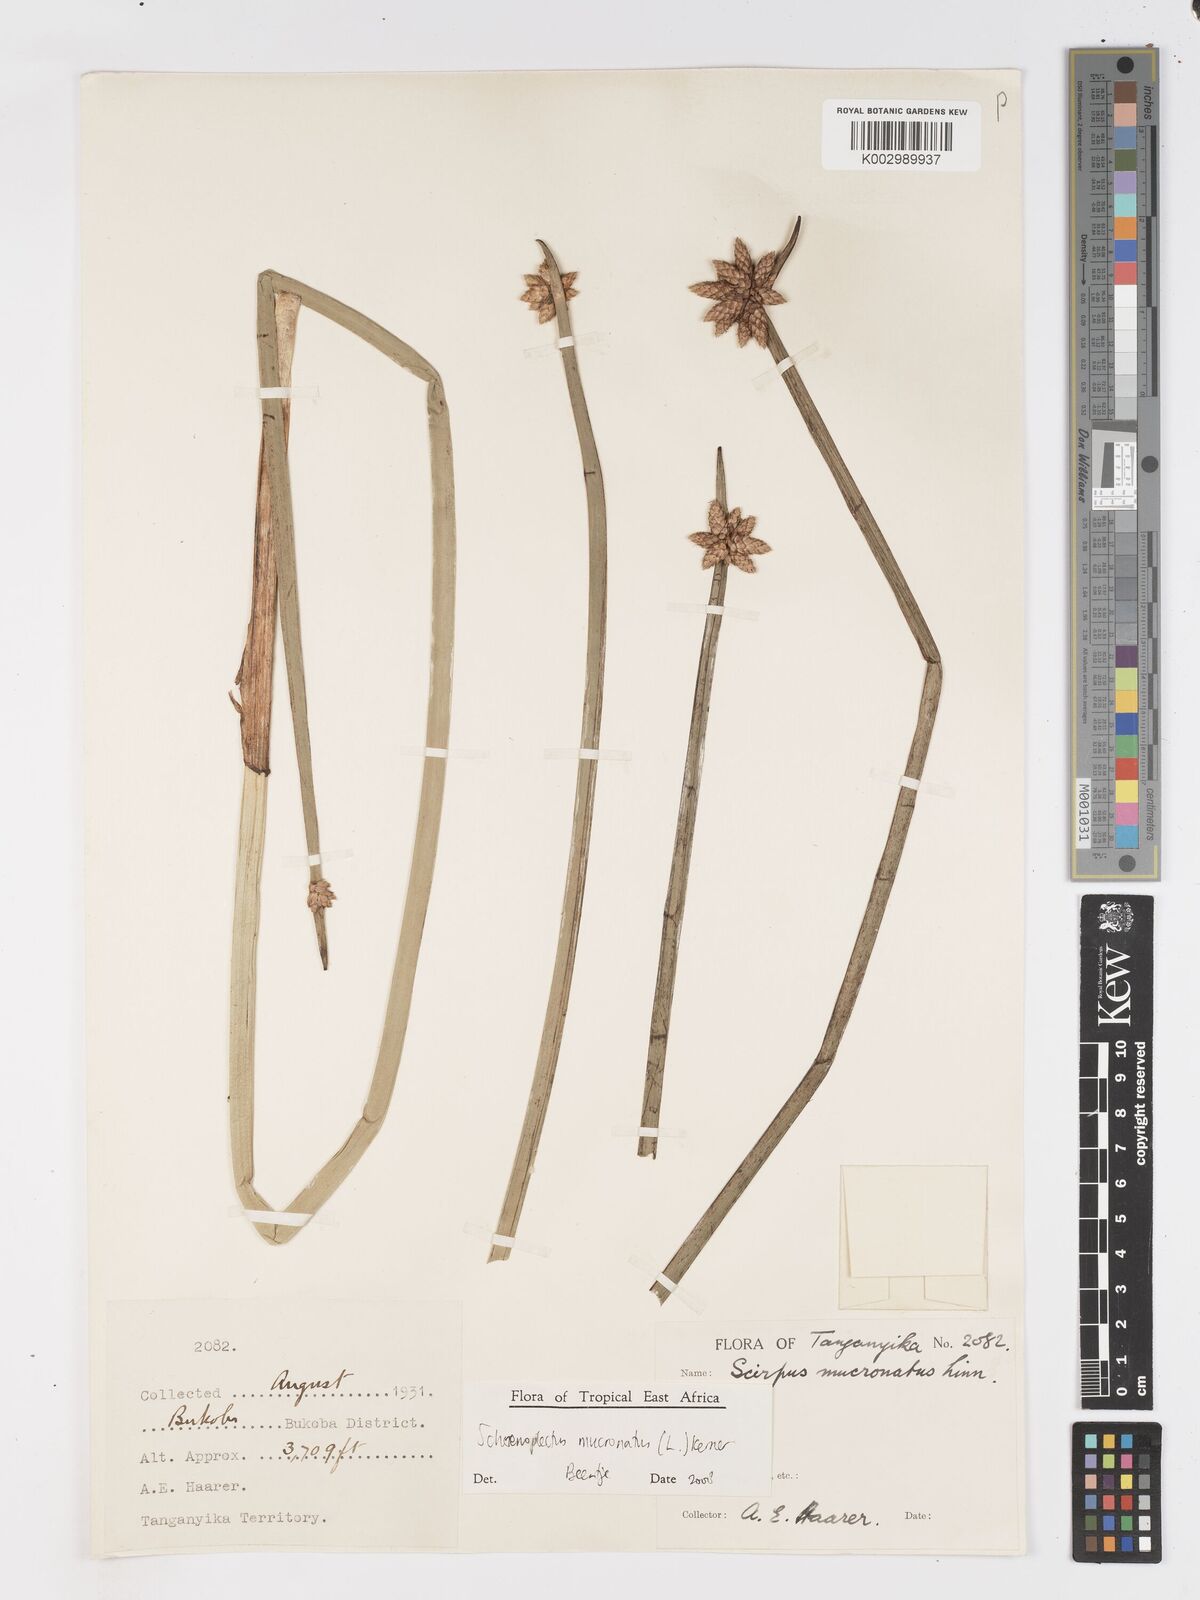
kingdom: Plantae
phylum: Tracheophyta
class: Liliopsida
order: Poales
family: Cyperaceae
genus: Schoenoplectiella
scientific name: Schoenoplectiella mucronata
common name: Bog bulrush
